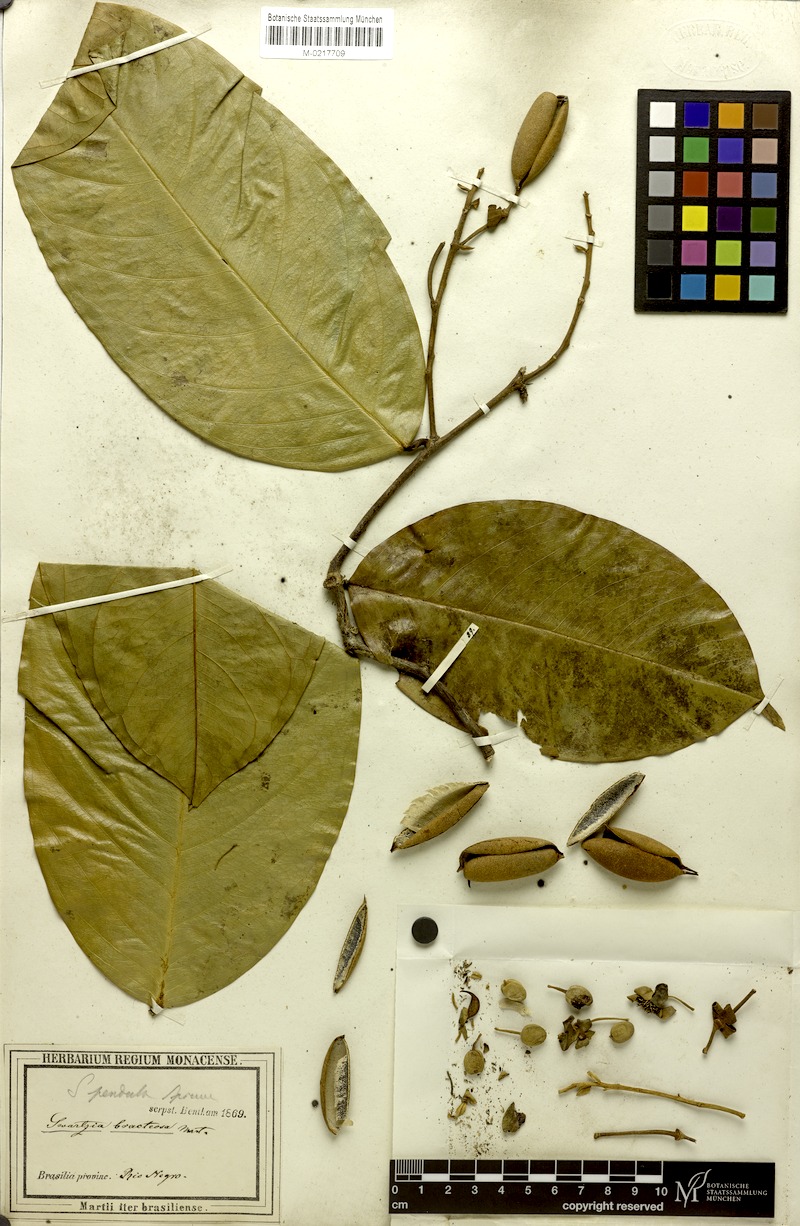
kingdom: Plantae
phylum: Tracheophyta
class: Magnoliopsida
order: Fabales
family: Fabaceae
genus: Swartzia
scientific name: Swartzia pendula
